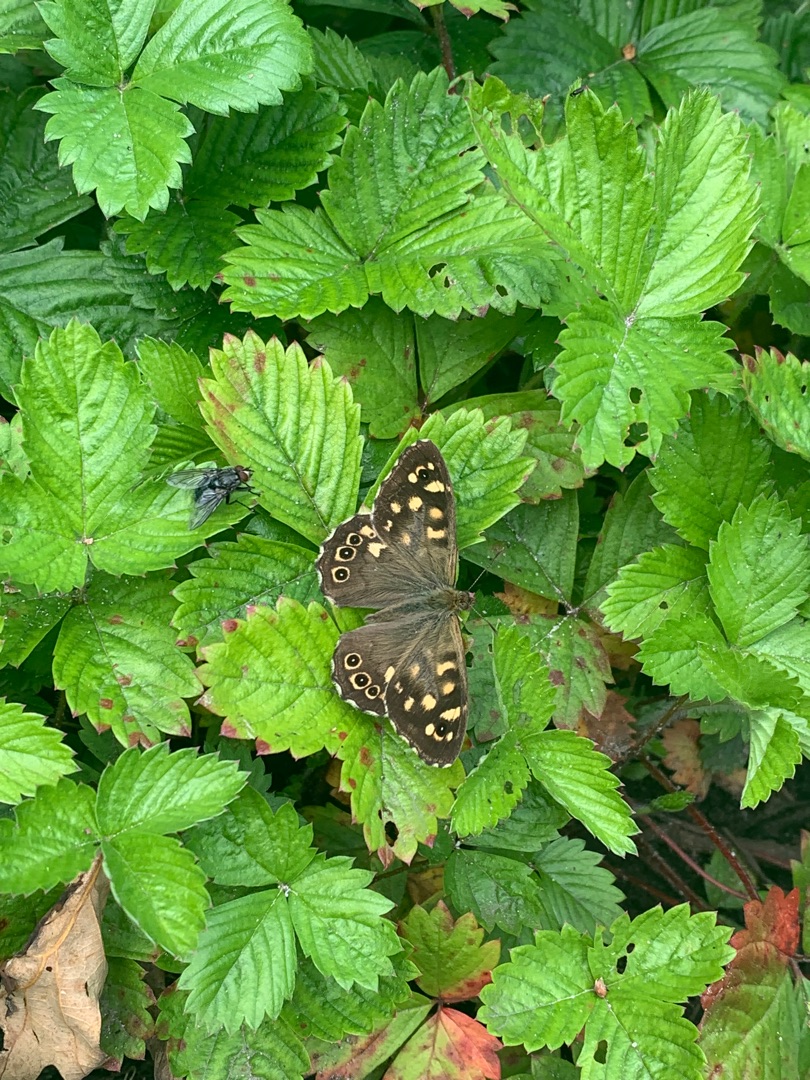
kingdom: Animalia
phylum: Arthropoda
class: Insecta
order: Lepidoptera
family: Nymphalidae
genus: Pararge
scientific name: Pararge aegeria
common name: Skovrandøje
